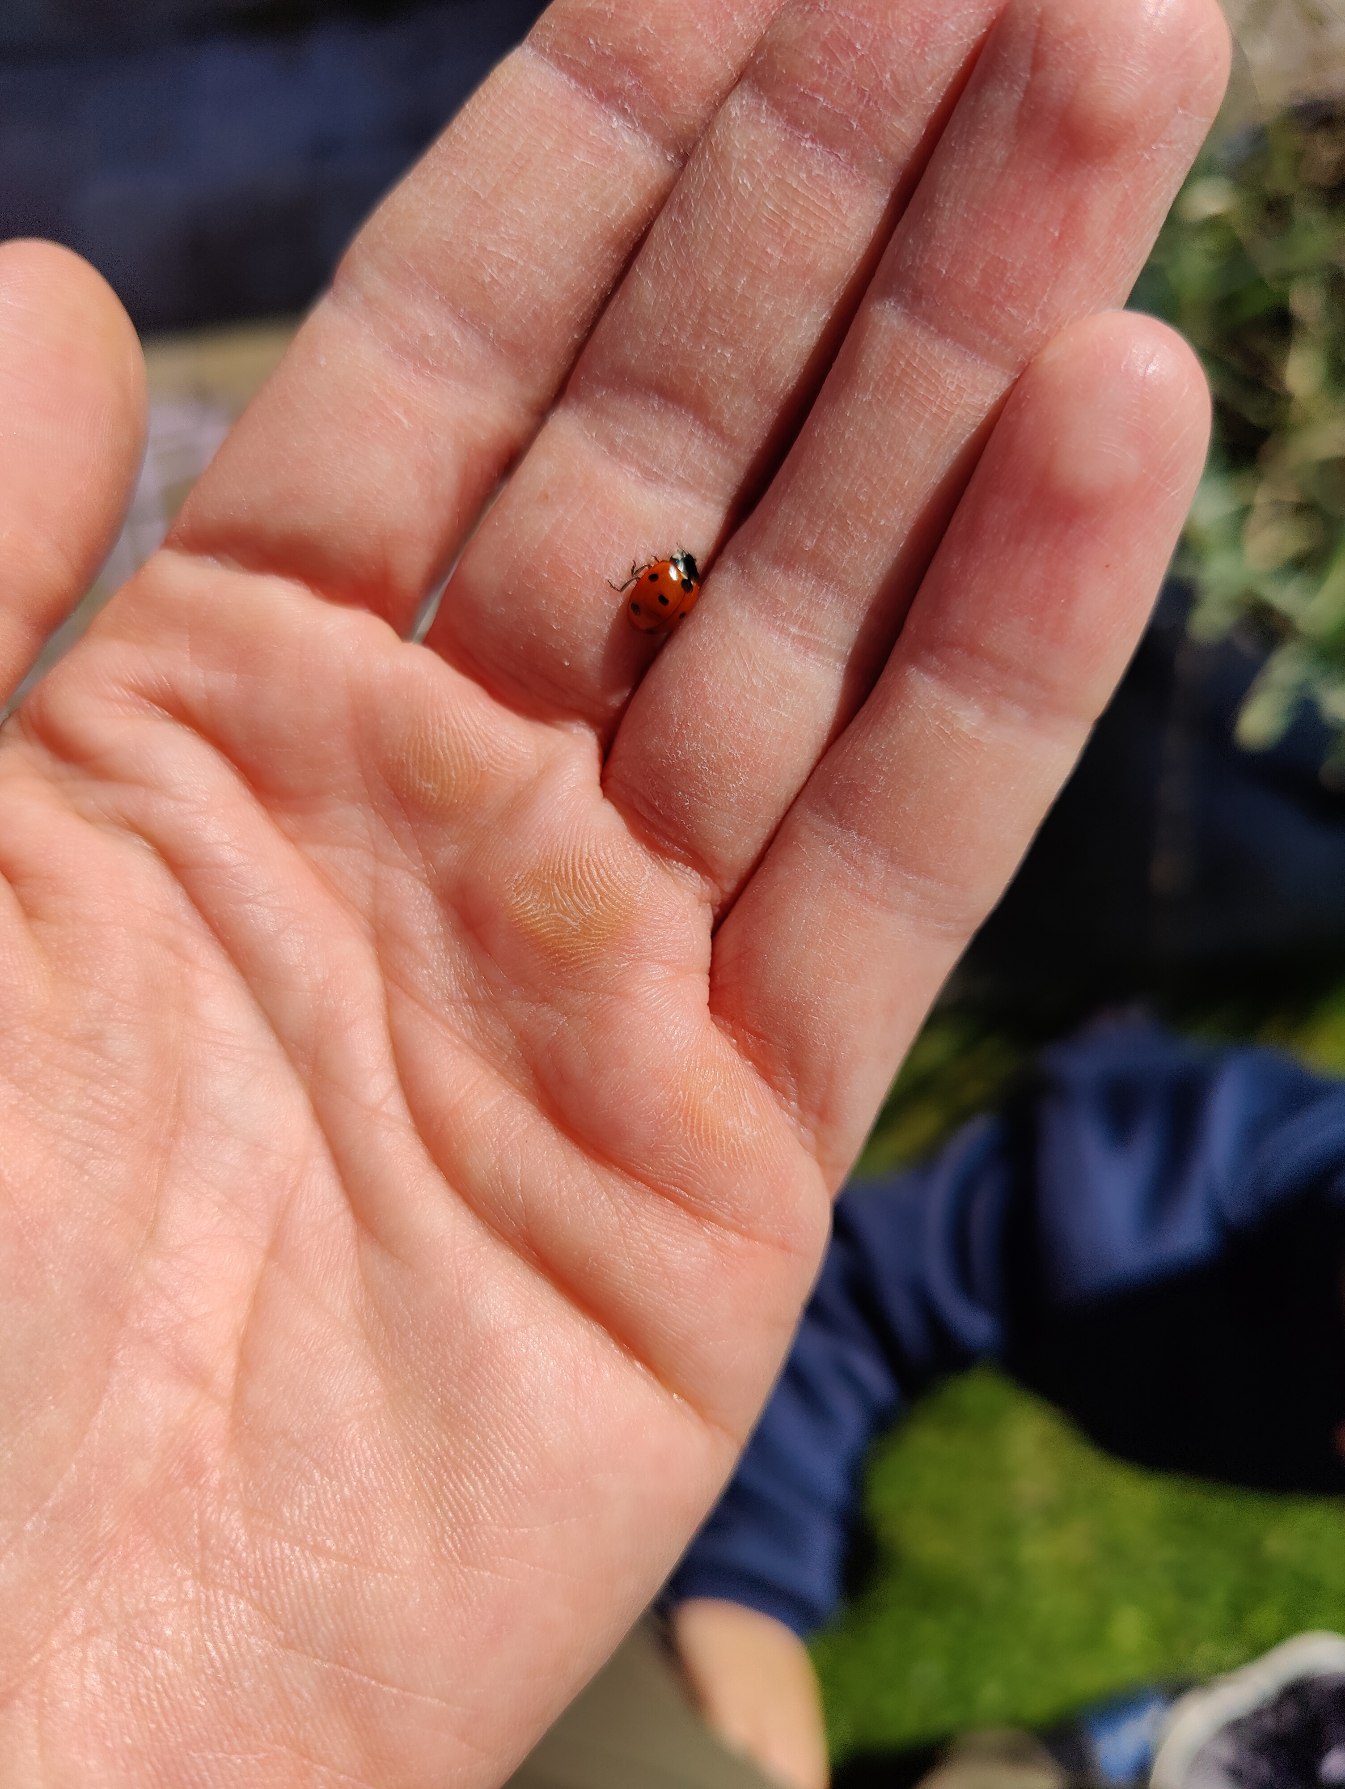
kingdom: Animalia
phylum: Arthropoda
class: Insecta
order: Coleoptera
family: Coccinellidae
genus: Coccinella
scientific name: Coccinella septempunctata
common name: Syvplettet mariehøne
